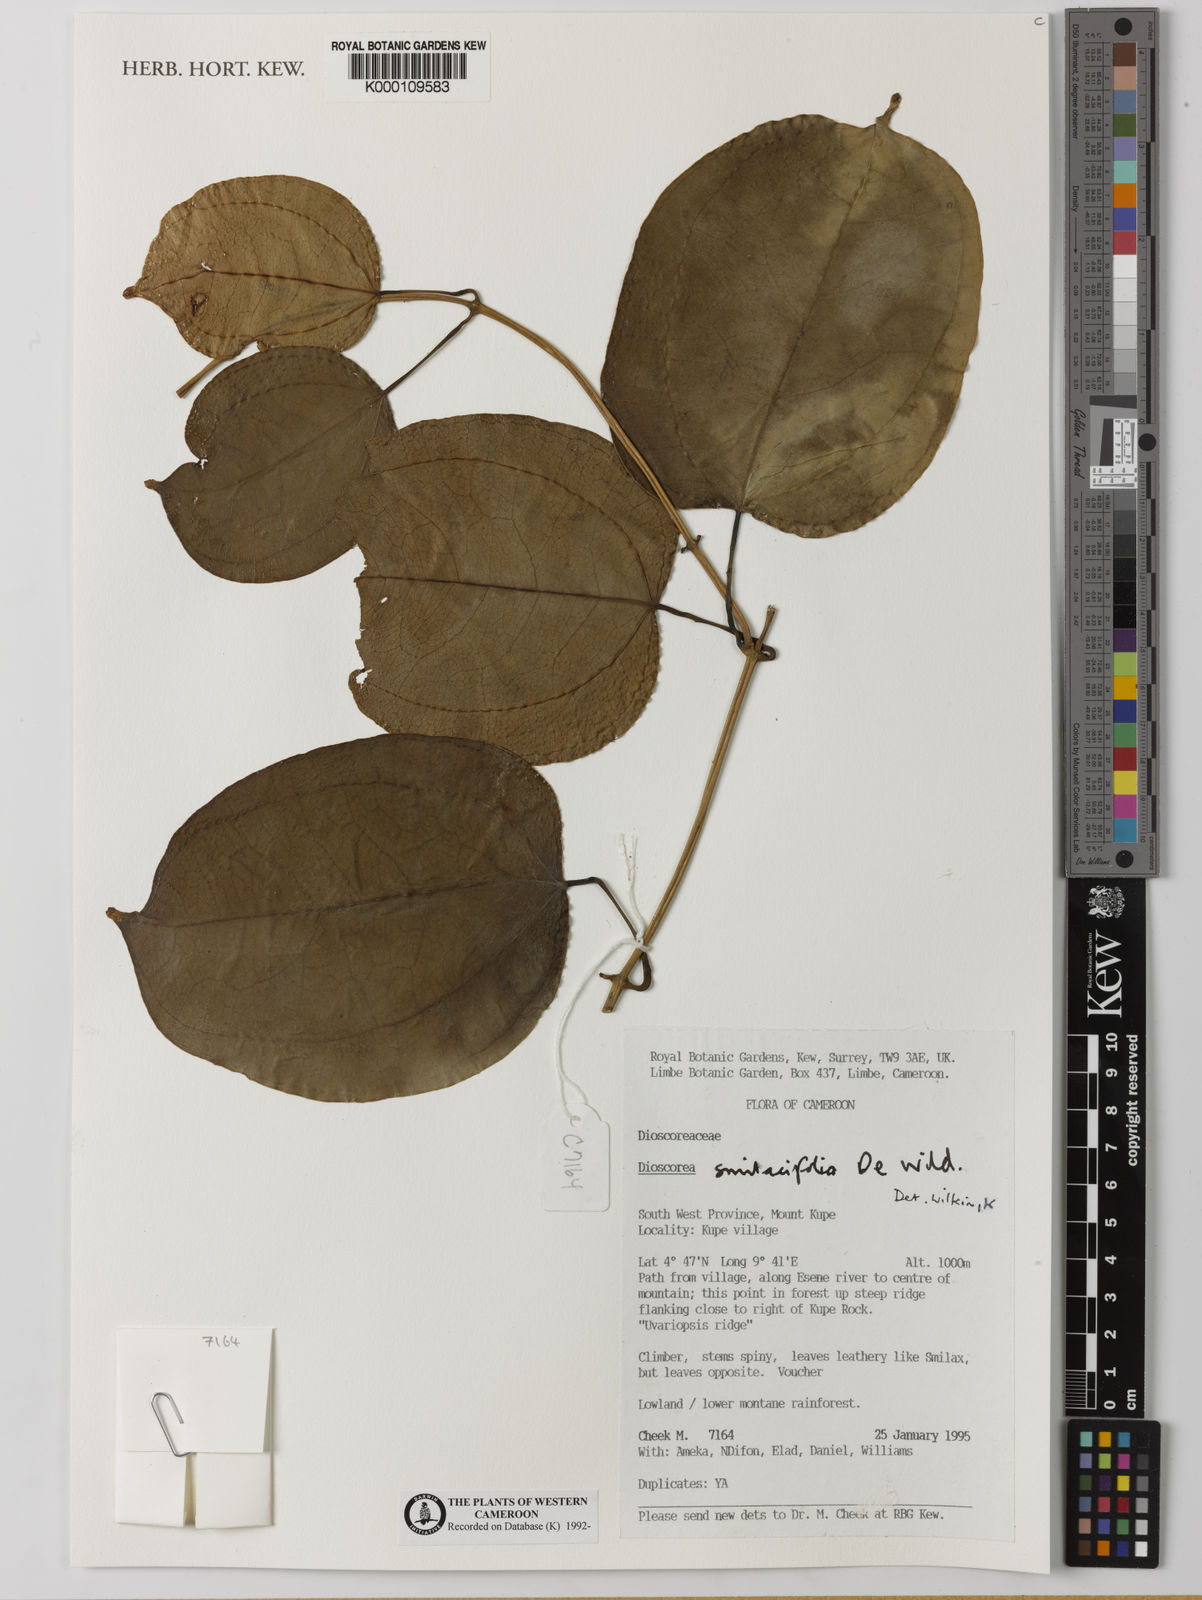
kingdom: Plantae
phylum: Tracheophyta
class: Liliopsida
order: Dioscoreales
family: Dioscoreaceae
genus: Dioscorea
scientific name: Dioscorea smilacifolia
